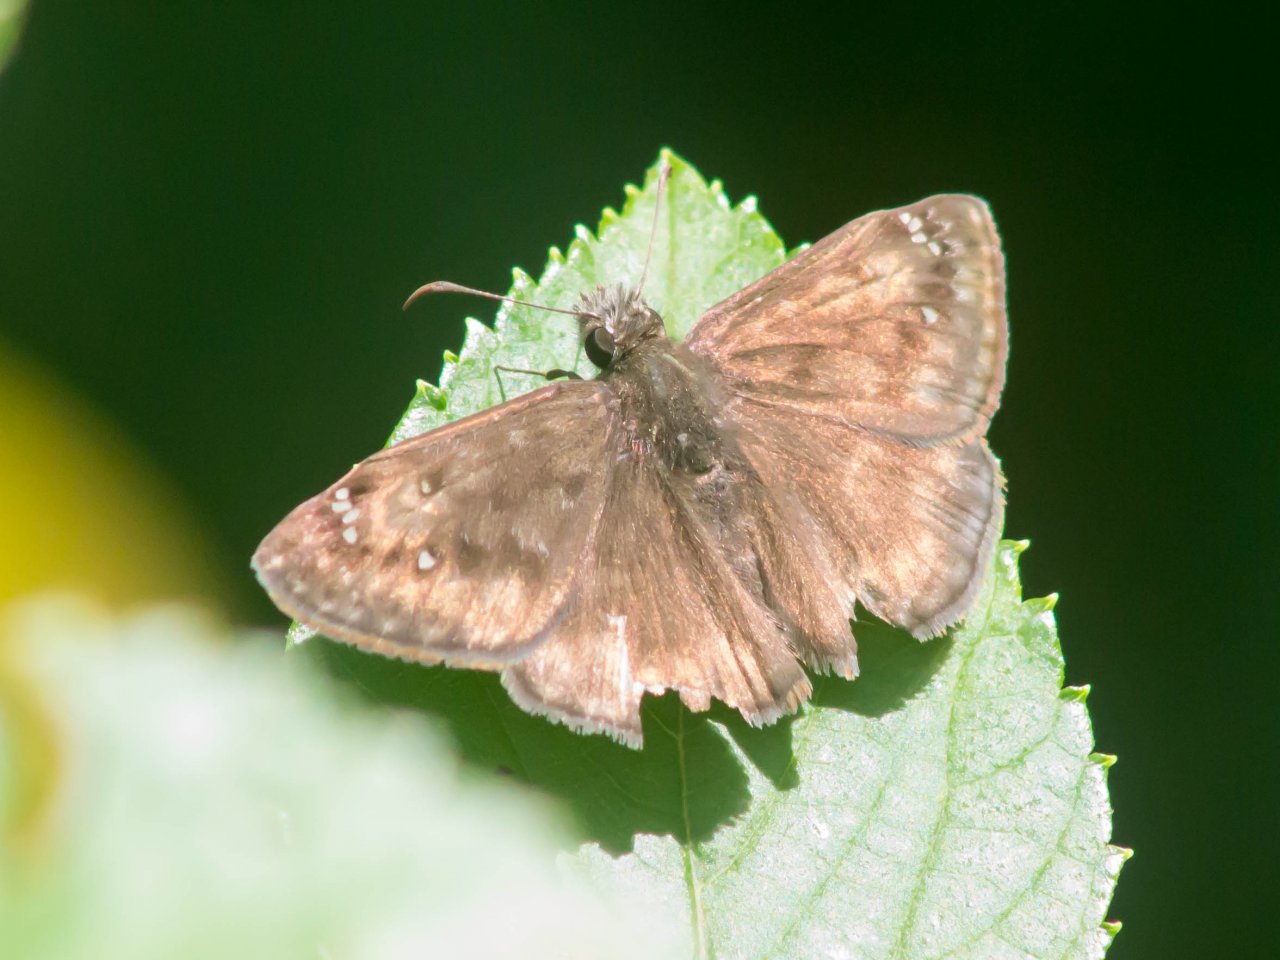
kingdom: Animalia
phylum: Arthropoda
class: Insecta
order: Lepidoptera
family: Hesperiidae
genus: Gesta
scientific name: Gesta
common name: Horace's Duskywing
